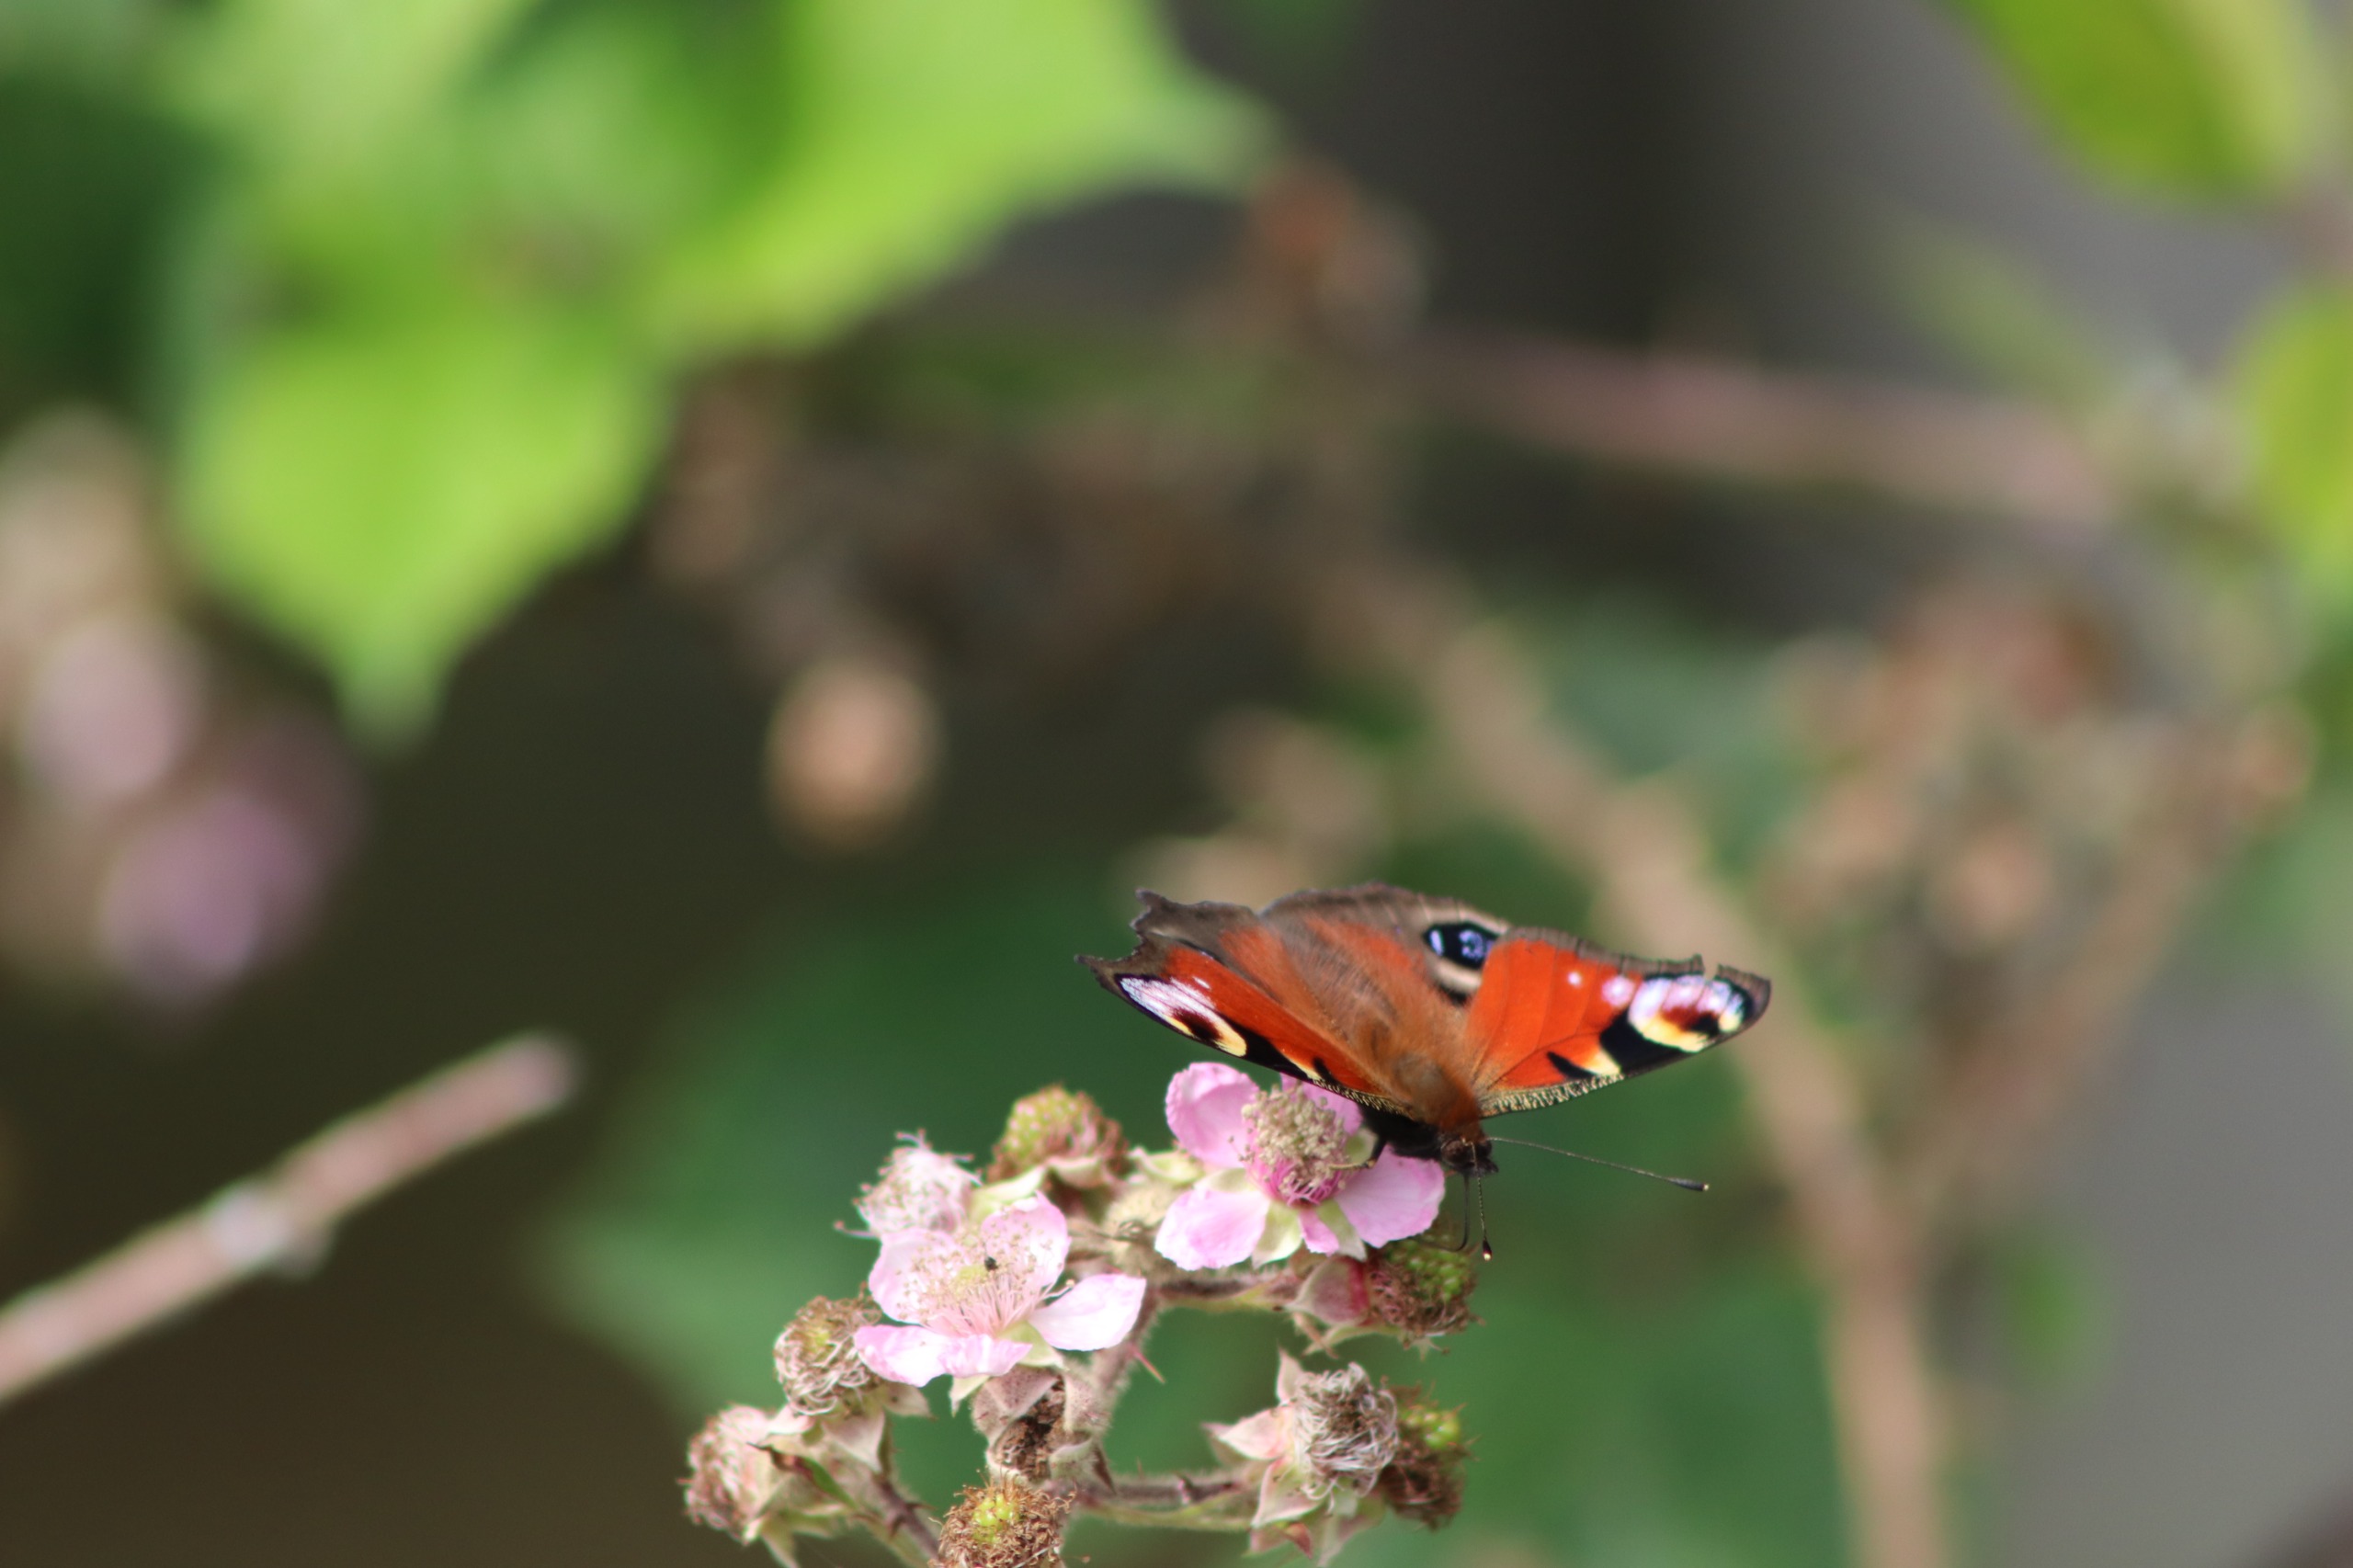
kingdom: Animalia
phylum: Arthropoda
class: Insecta
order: Lepidoptera
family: Nymphalidae
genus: Aglais
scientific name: Aglais io
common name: Dagpåfugleøje
